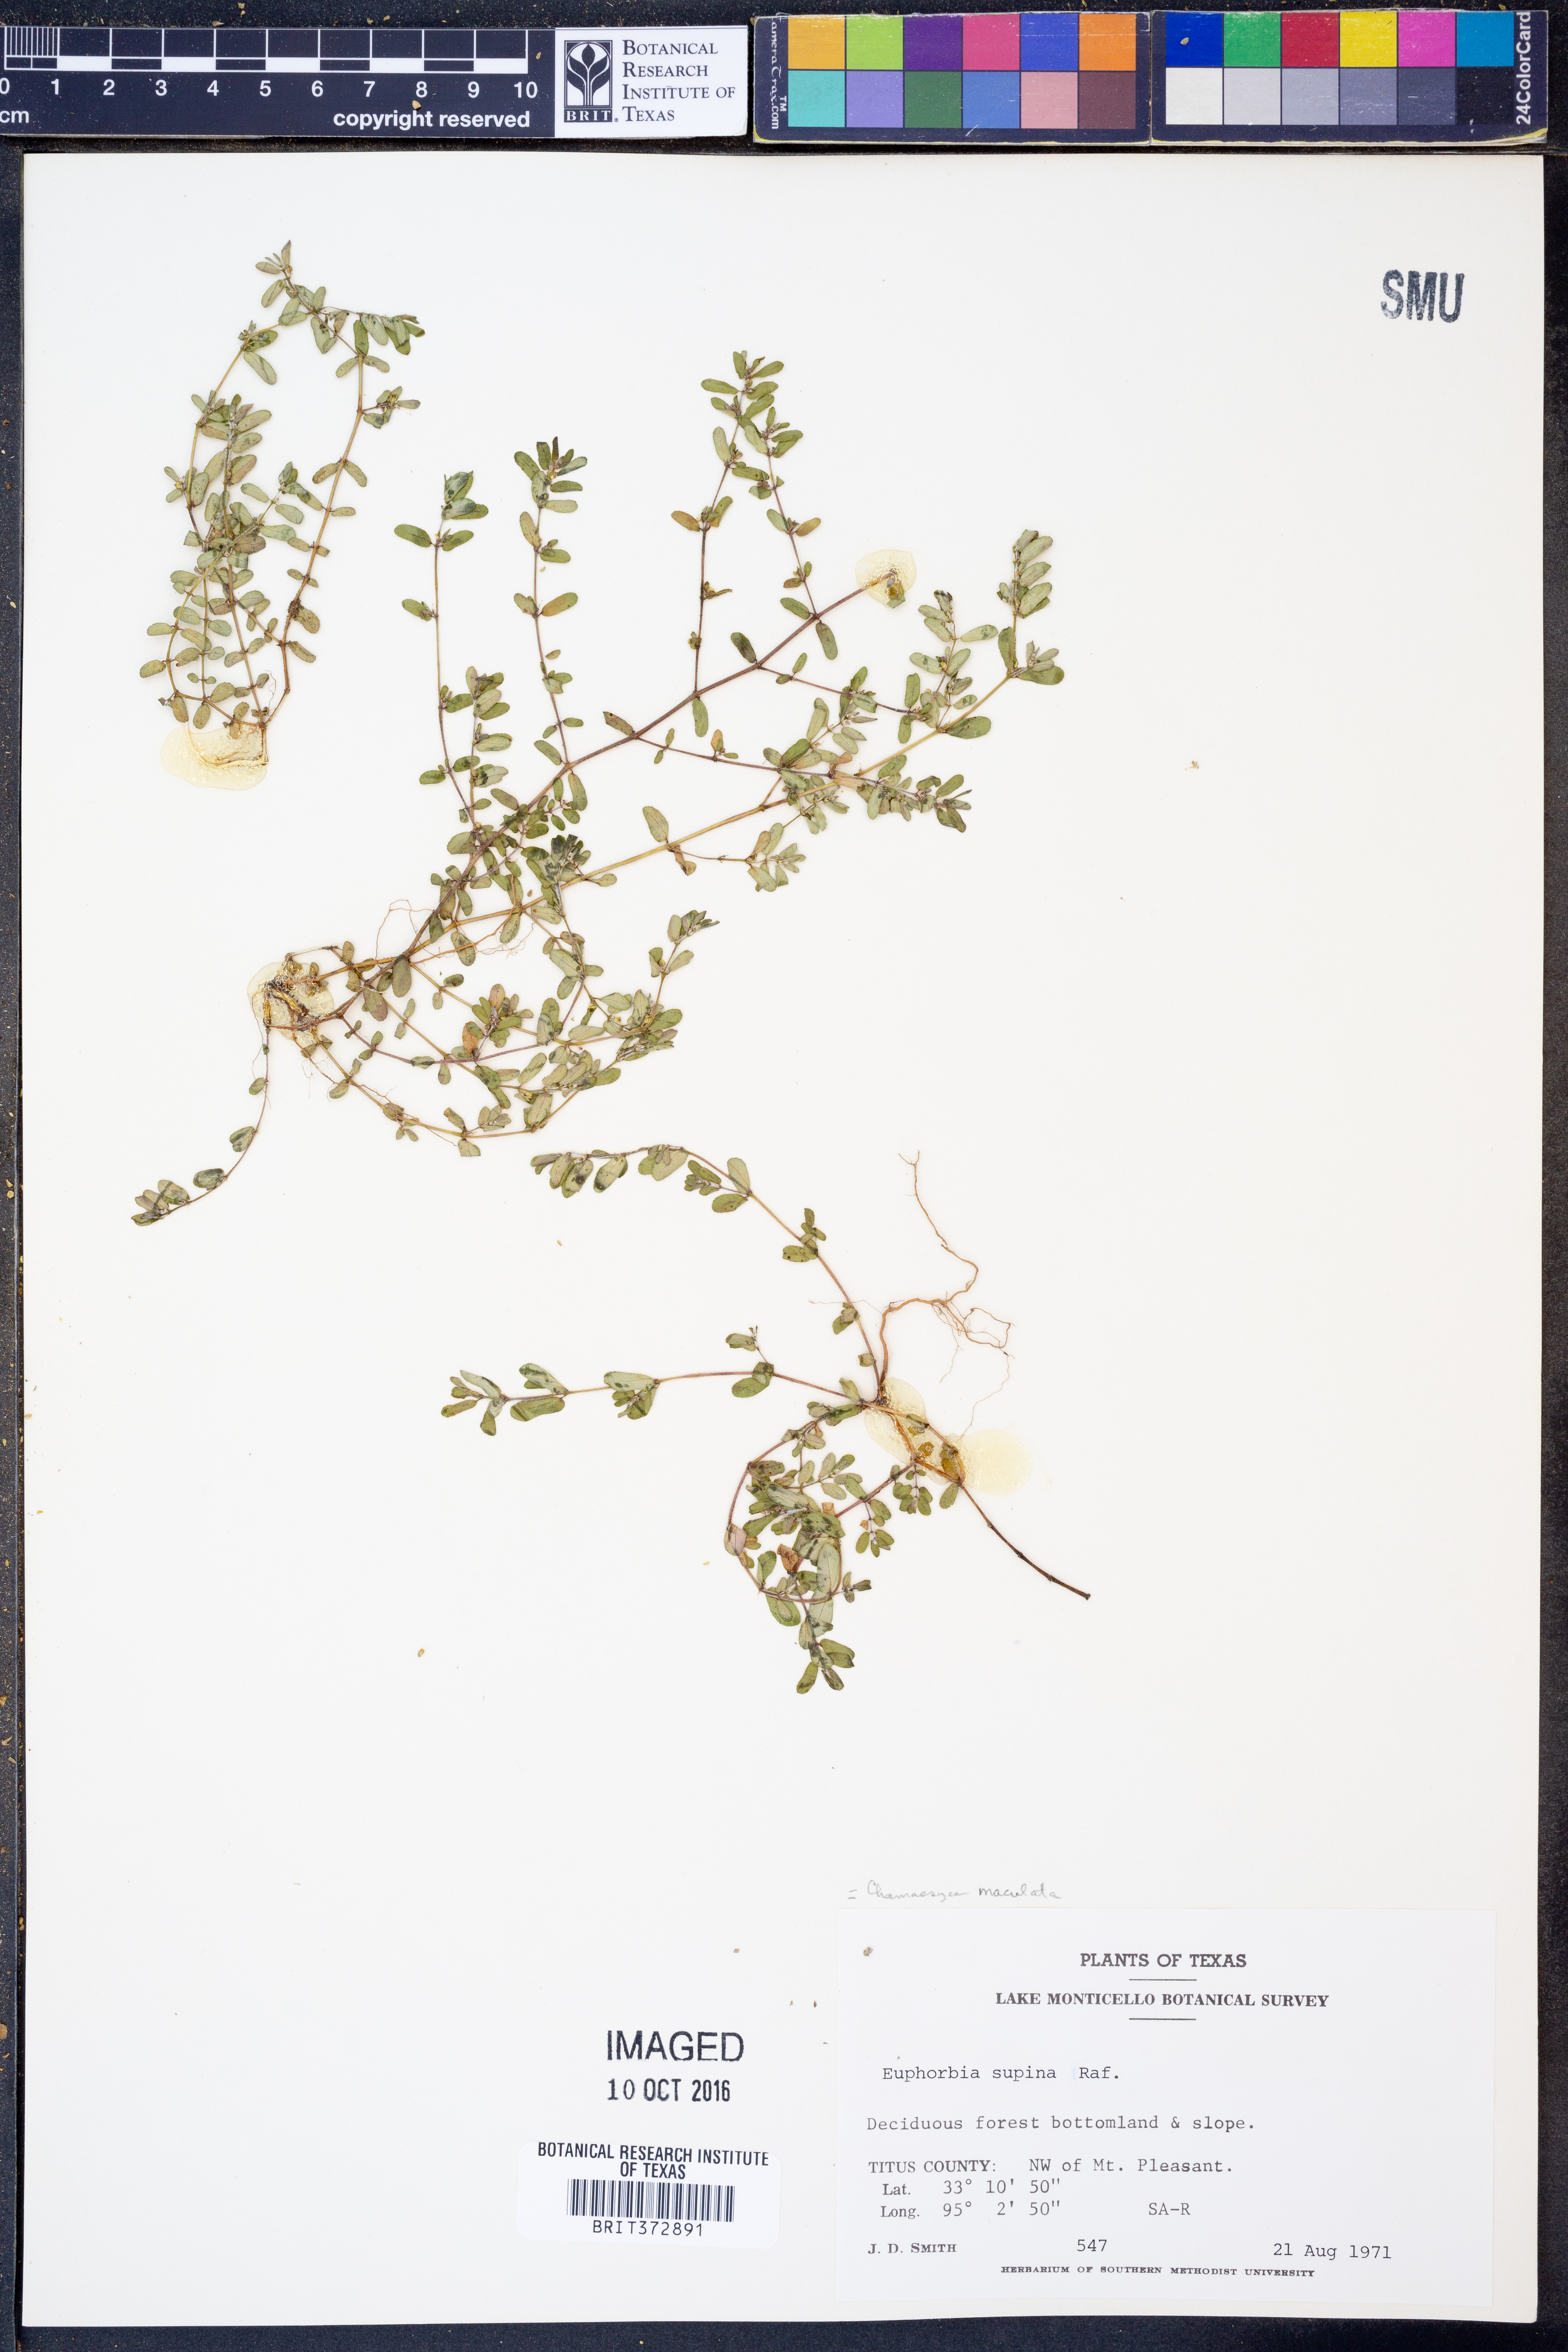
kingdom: Plantae
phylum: Tracheophyta
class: Magnoliopsida
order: Malpighiales
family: Euphorbiaceae
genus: Euphorbia
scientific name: Euphorbia maculata
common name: Spotted spurge
